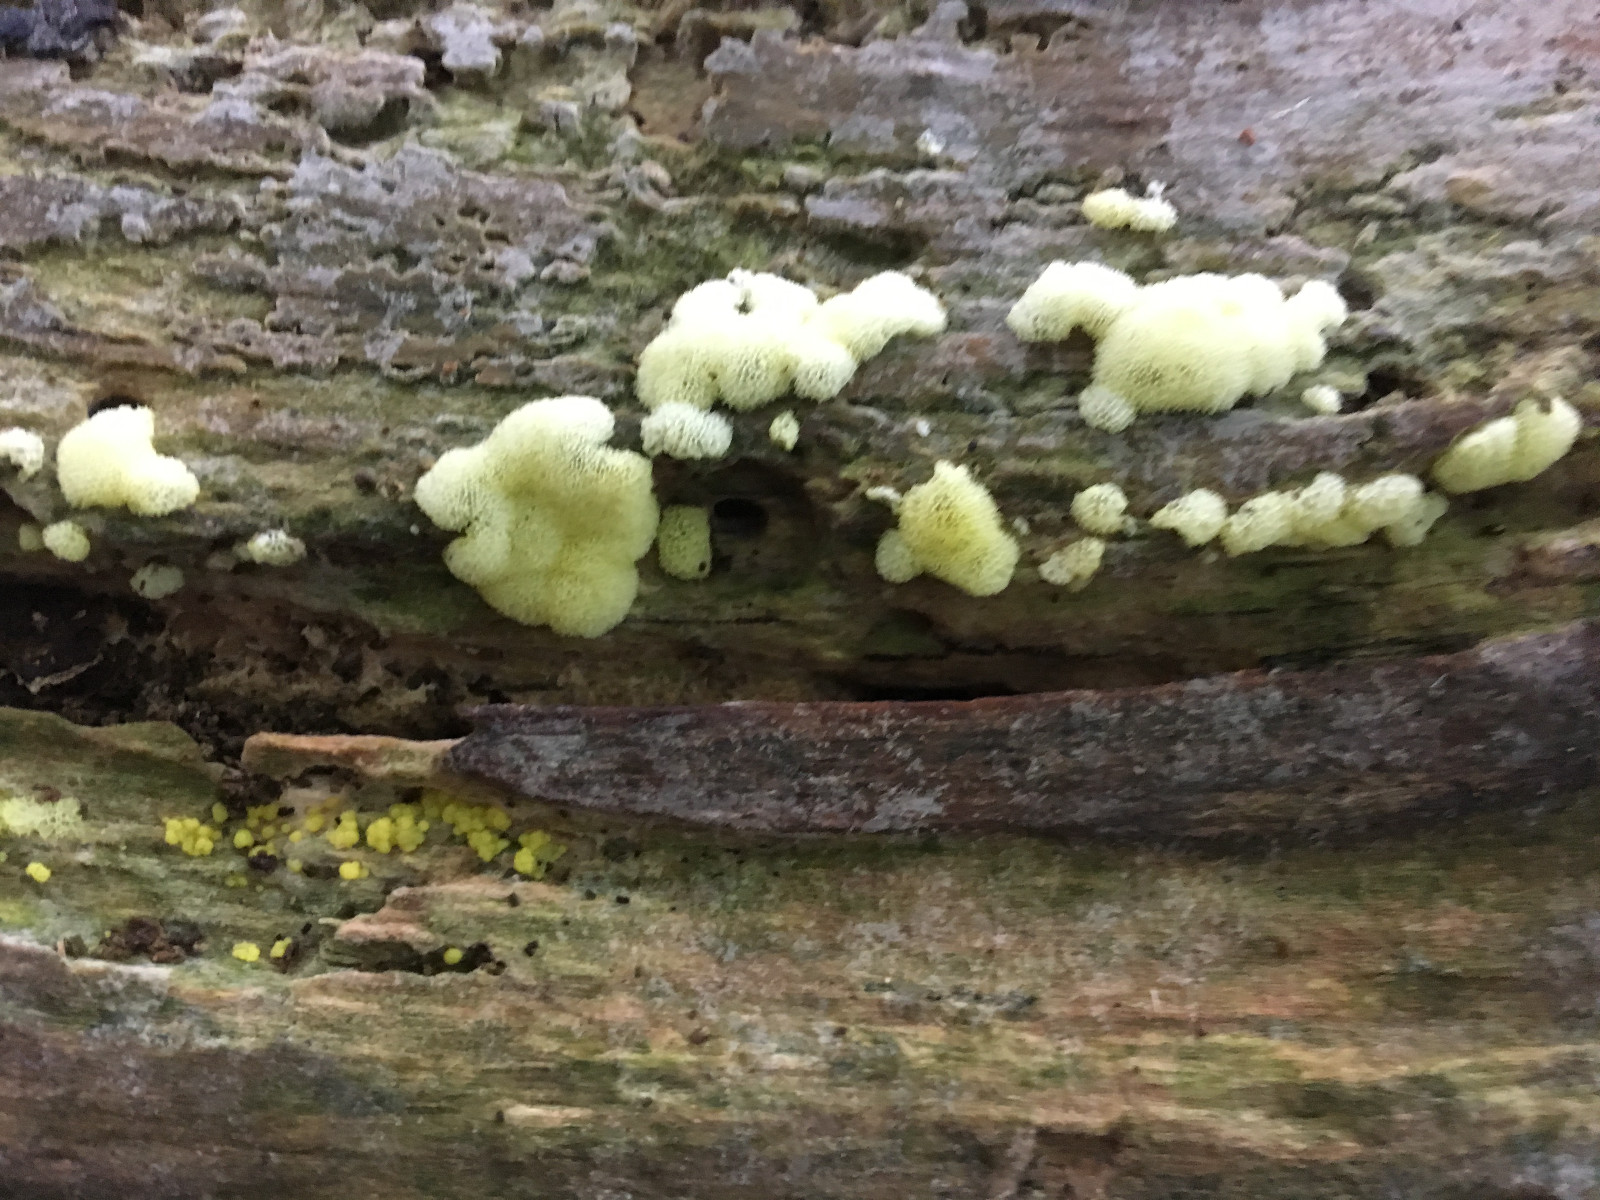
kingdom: Protozoa
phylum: Mycetozoa
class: Protosteliomycetes
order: Ceratiomyxales
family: Ceratiomyxaceae
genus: Ceratiomyxa
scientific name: Ceratiomyxa fruticulosa
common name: Honeycomb coral slime mold
